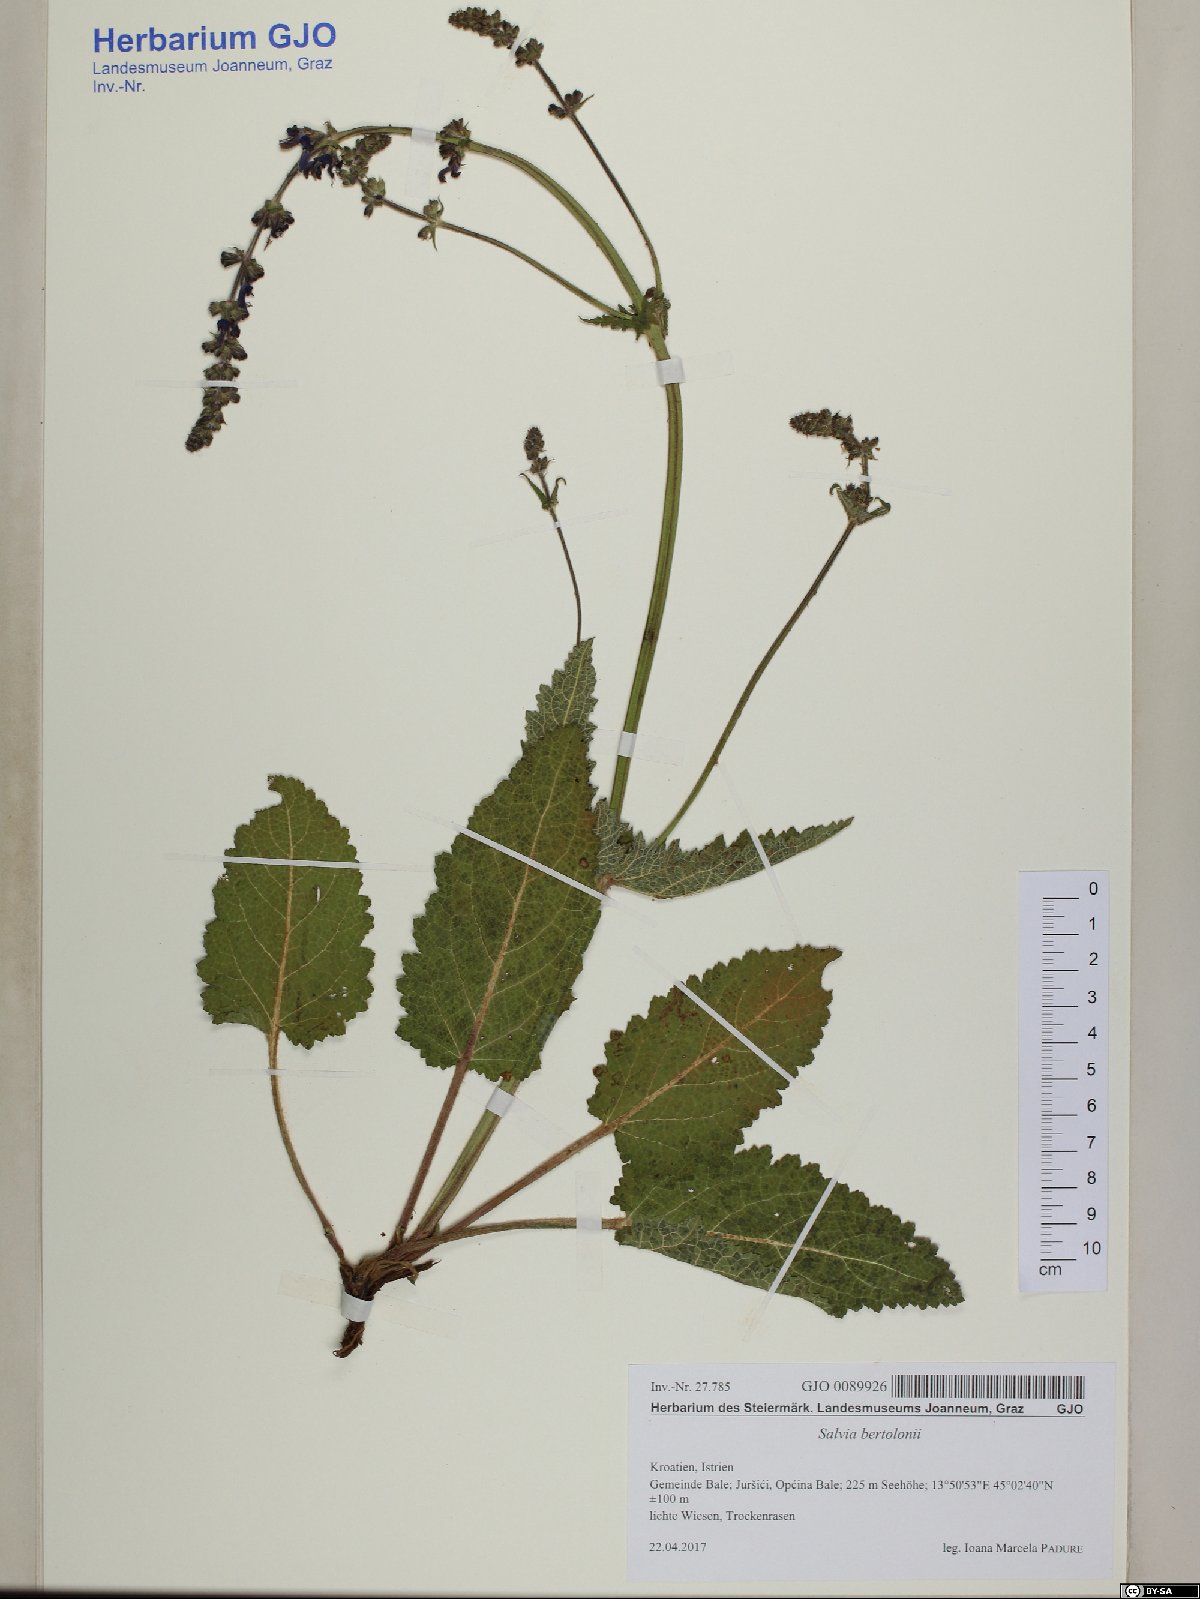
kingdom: Plantae
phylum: Tracheophyta
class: Magnoliopsida
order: Lamiales
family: Lamiaceae
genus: Salvia
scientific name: Salvia pratensis
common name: Meadow sage
